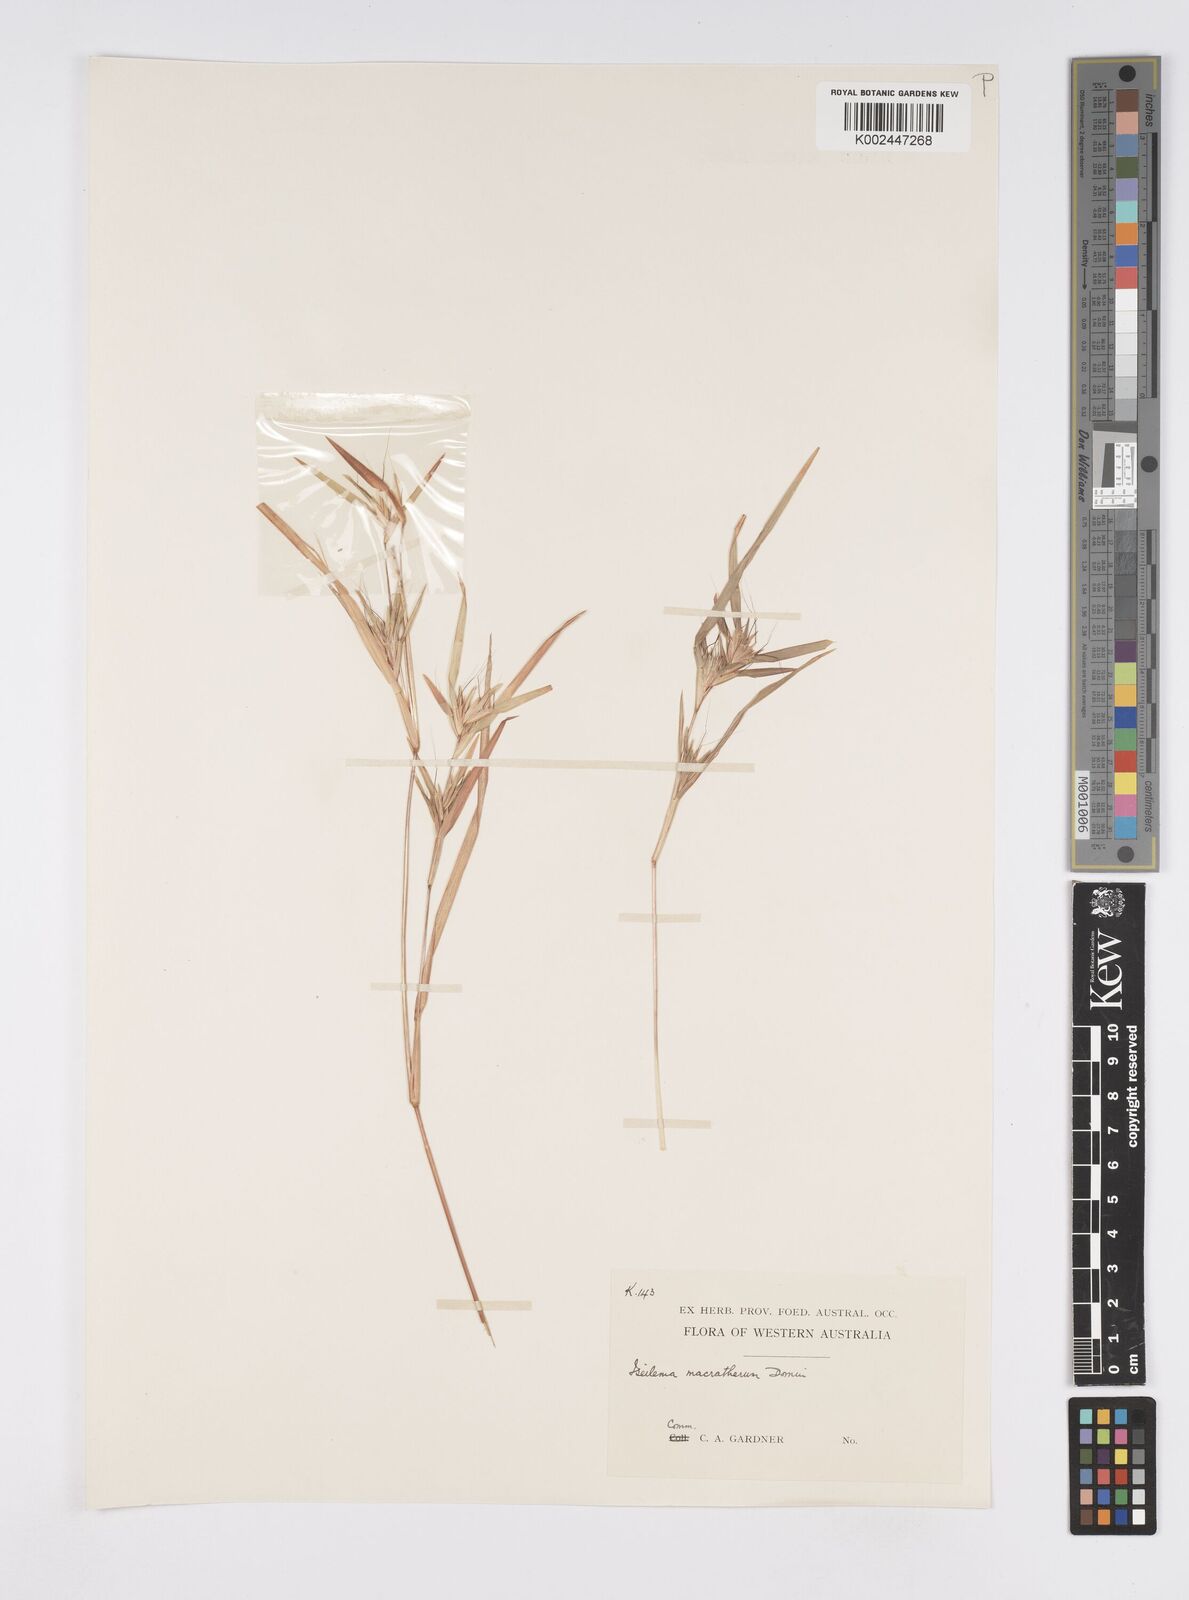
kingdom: Plantae
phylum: Tracheophyta
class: Liliopsida
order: Poales
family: Poaceae
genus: Iseilema
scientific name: Iseilema macratherum
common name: Bull flinders grass
